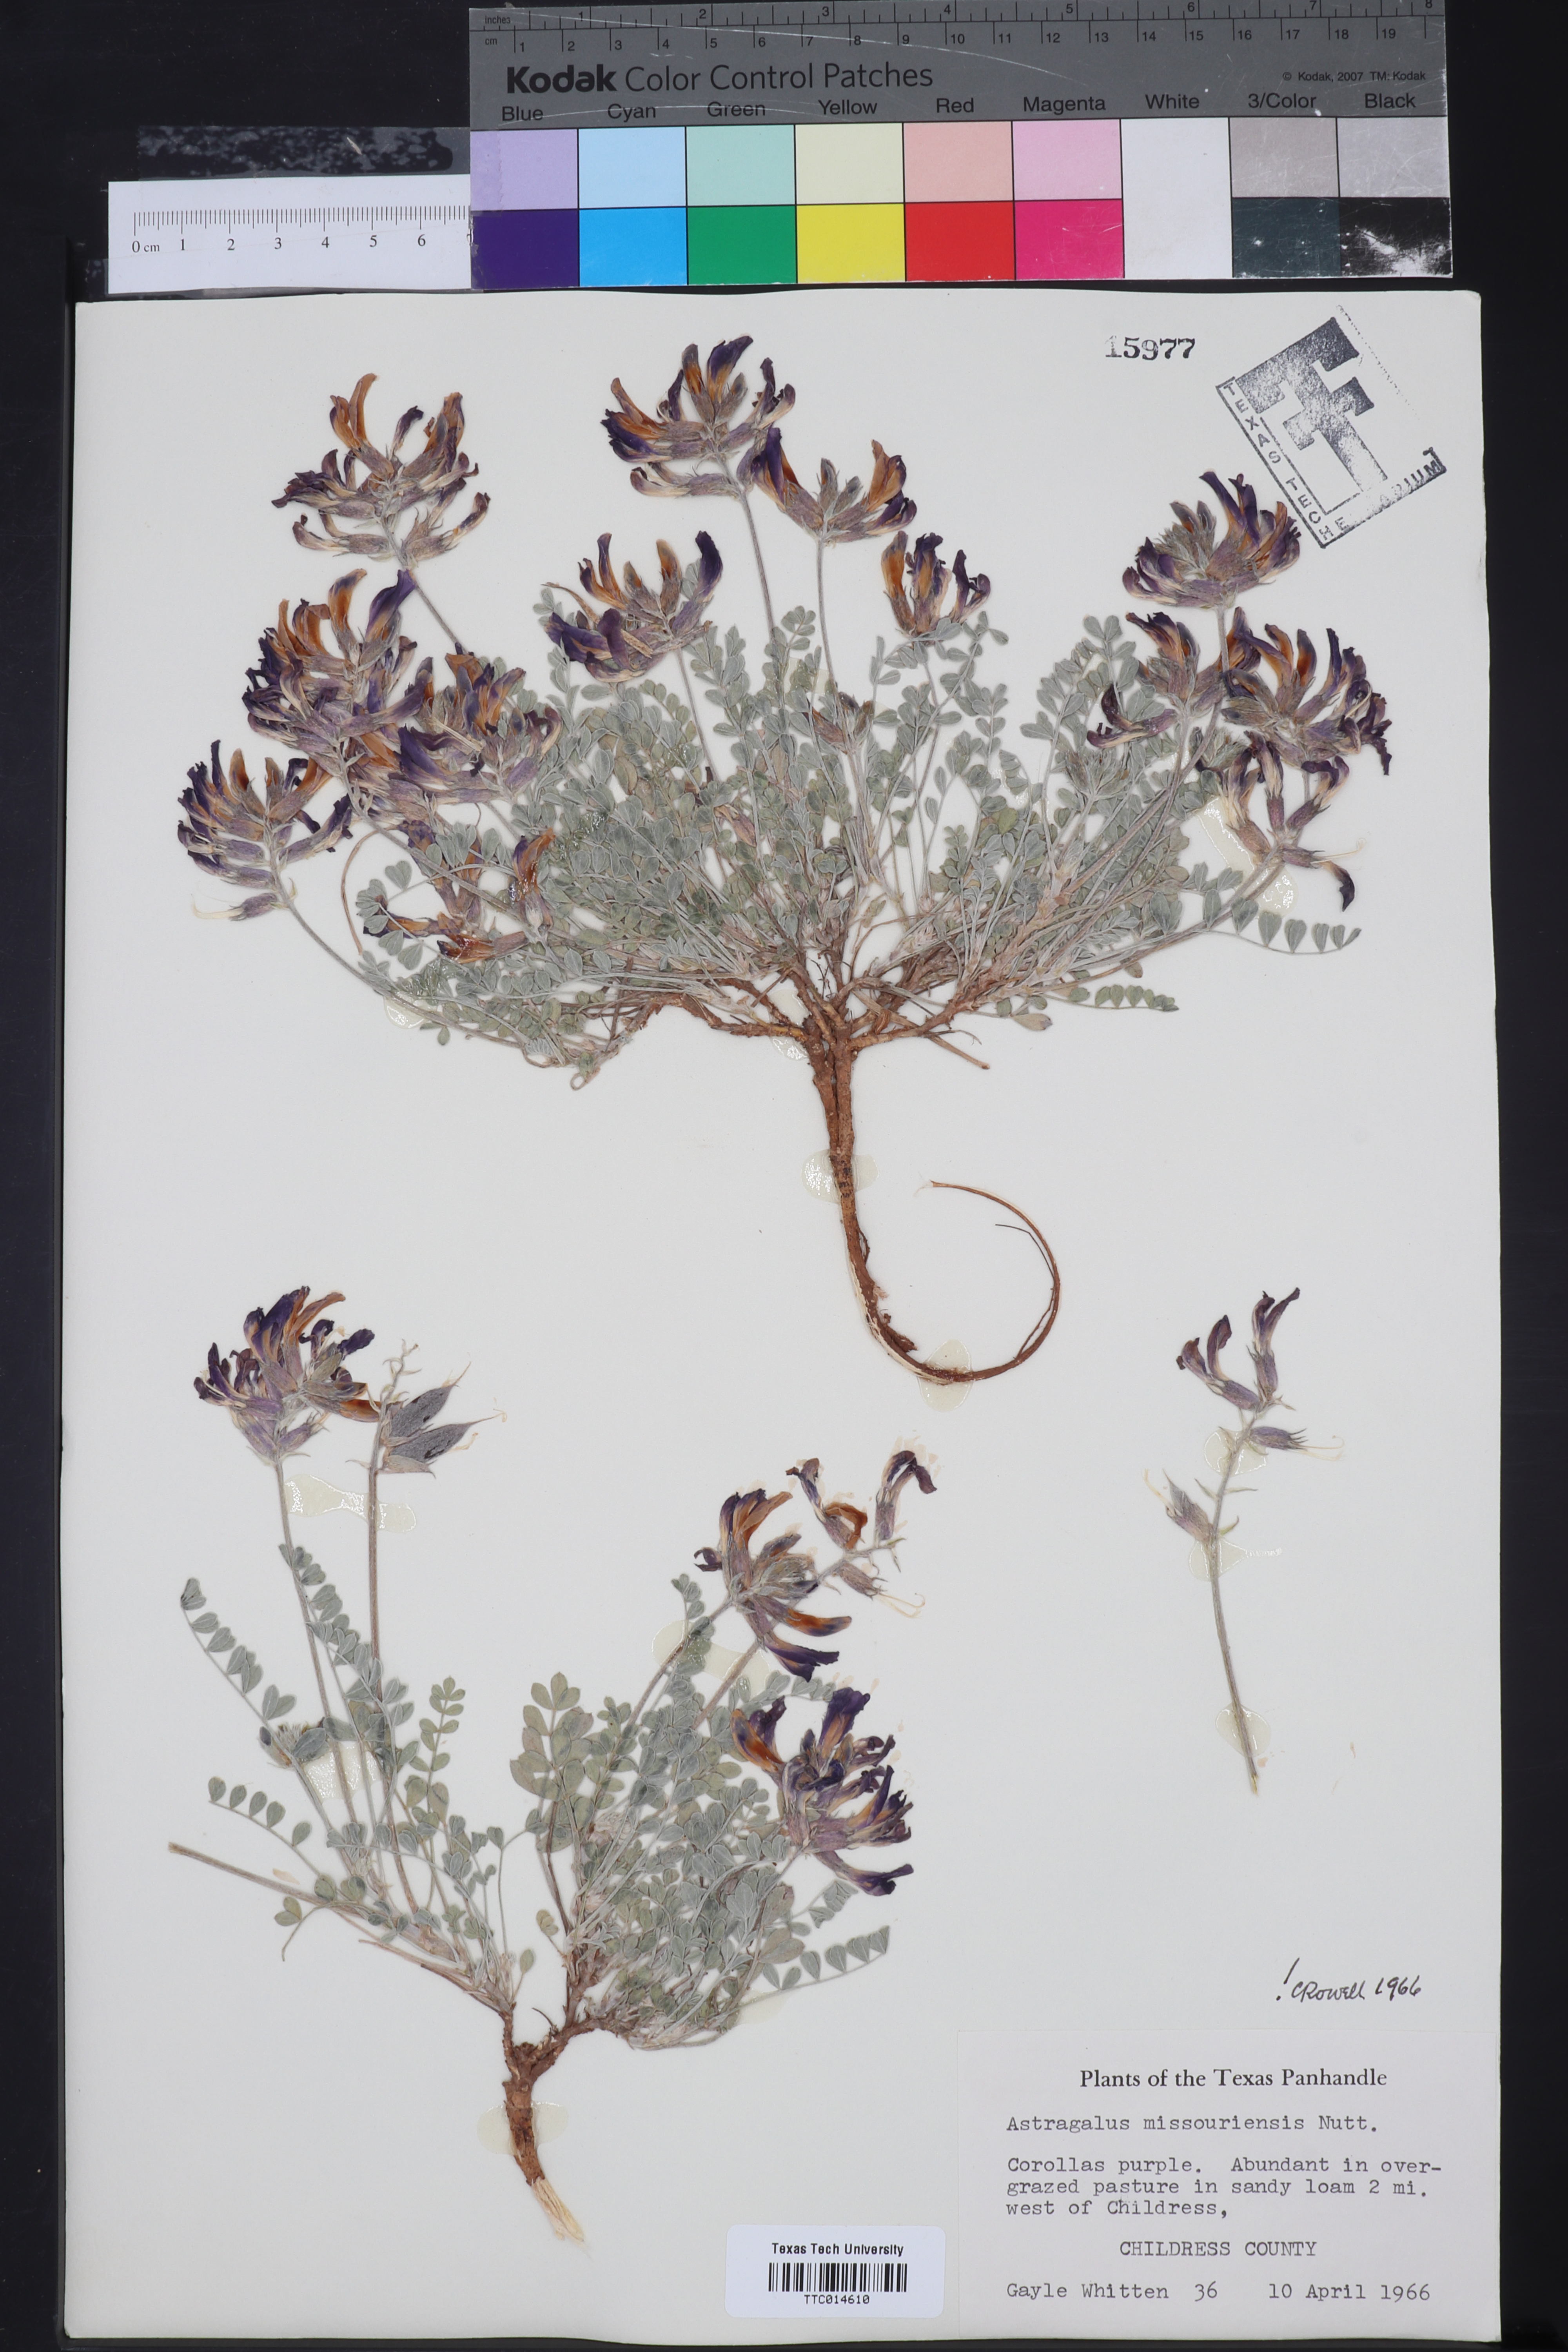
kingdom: Plantae
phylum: Tracheophyta
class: Magnoliopsida
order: Fabales
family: Fabaceae
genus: Astragalus
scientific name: Astragalus missouriensis
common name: Missouri milk-vetch
